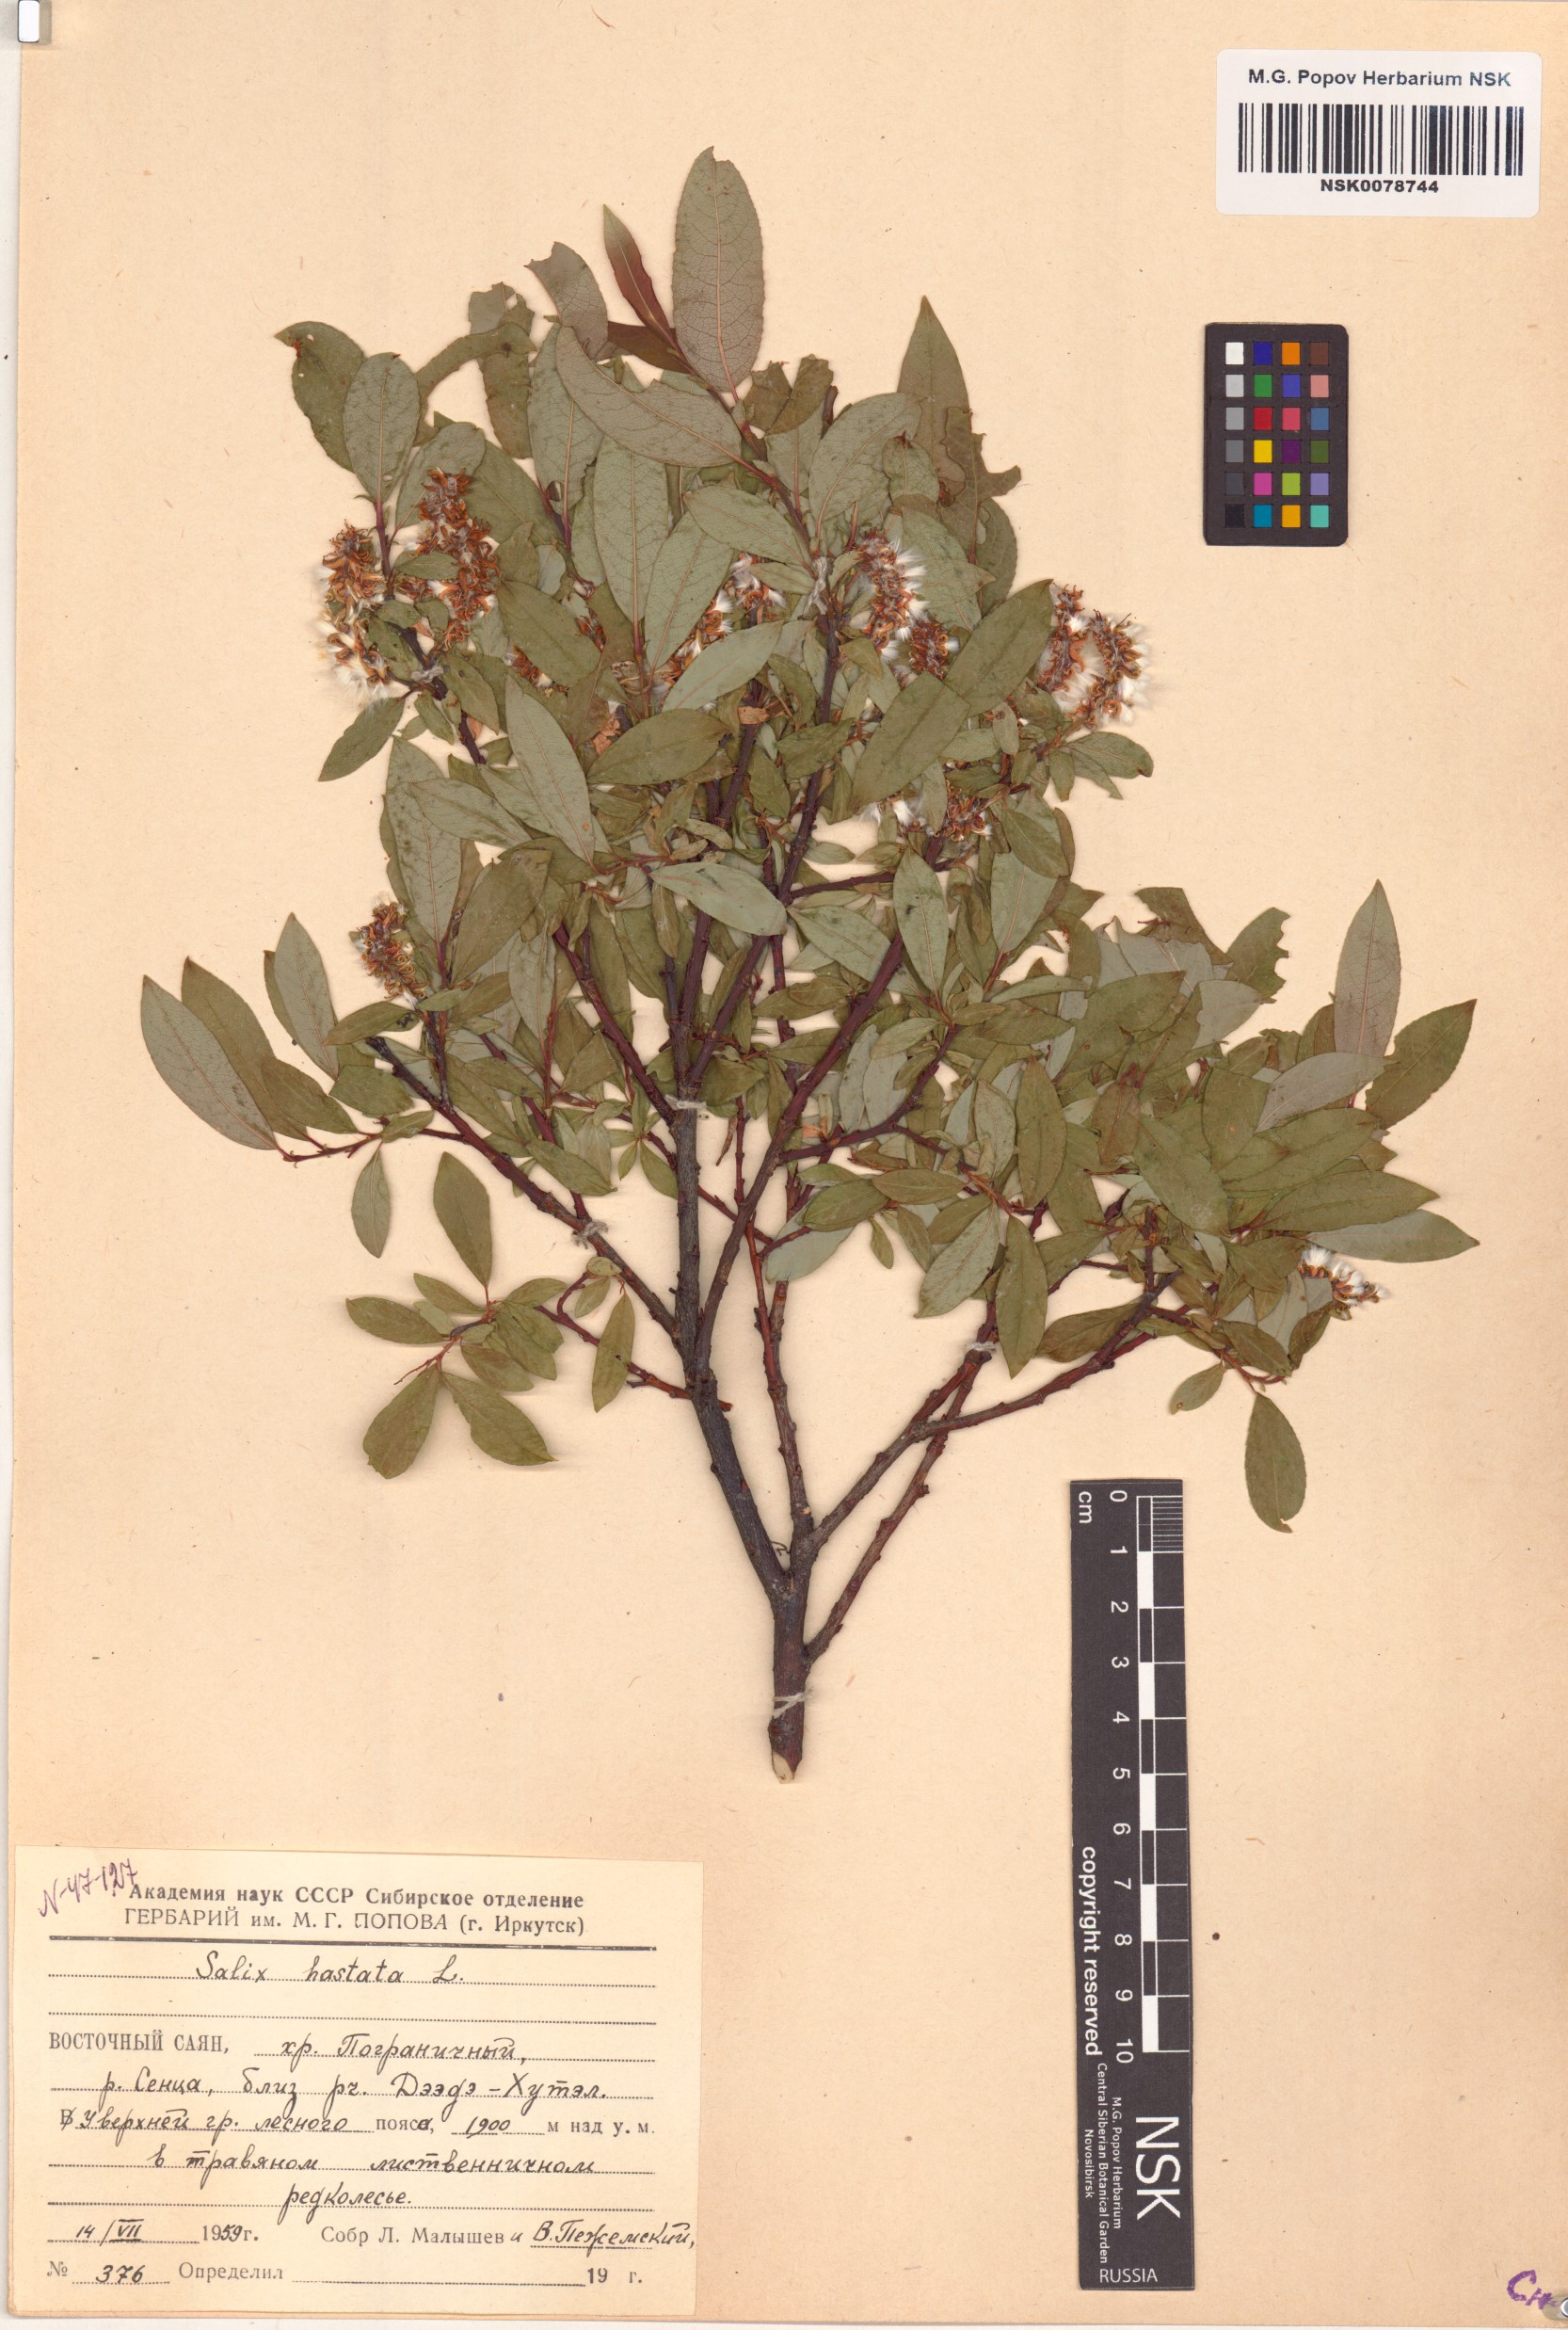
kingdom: Plantae
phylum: Tracheophyta
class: Magnoliopsida
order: Malpighiales
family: Salicaceae
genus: Salix
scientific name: Salix hastata
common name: Halberd willow
